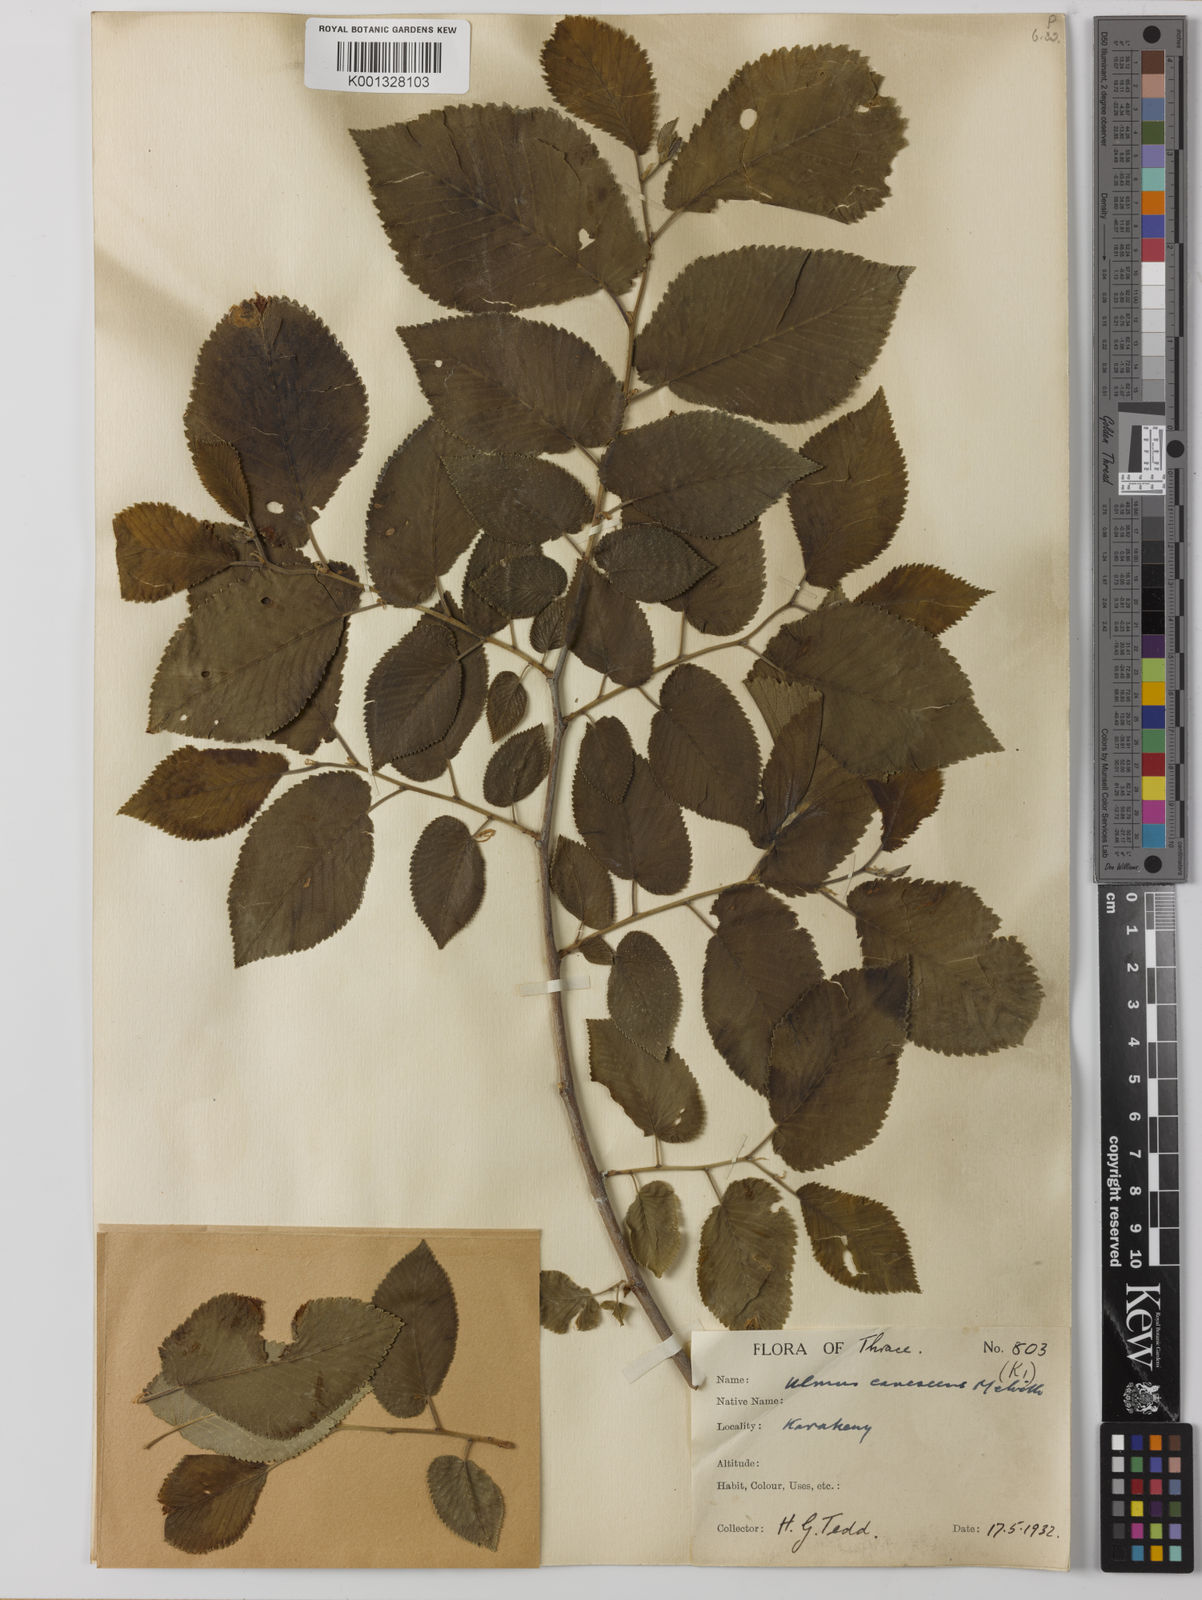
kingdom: Plantae
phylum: Tracheophyta
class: Magnoliopsida
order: Rosales
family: Ulmaceae
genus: Ulmus
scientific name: Ulmus minor
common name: Small-leaved elm
